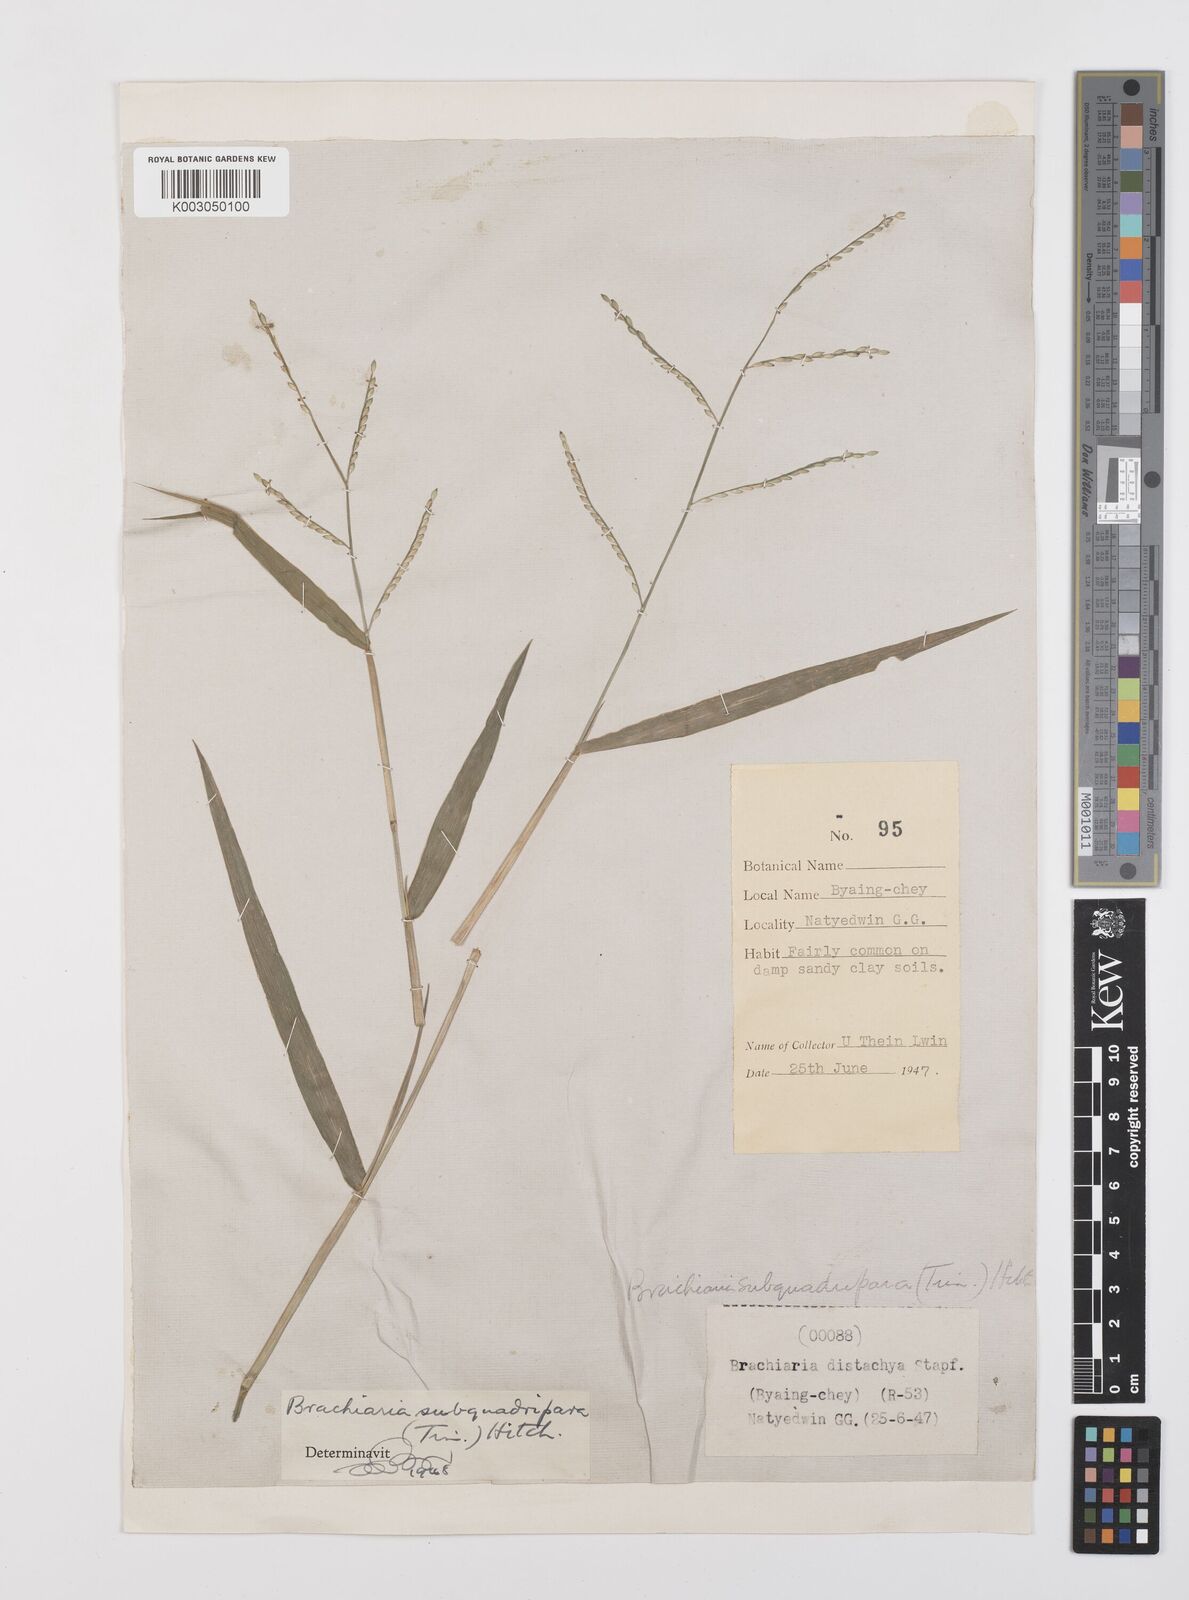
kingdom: Plantae
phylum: Tracheophyta
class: Liliopsida
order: Poales
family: Poaceae
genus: Urochloa
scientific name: Urochloa subquadripara
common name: Armgrass millet
